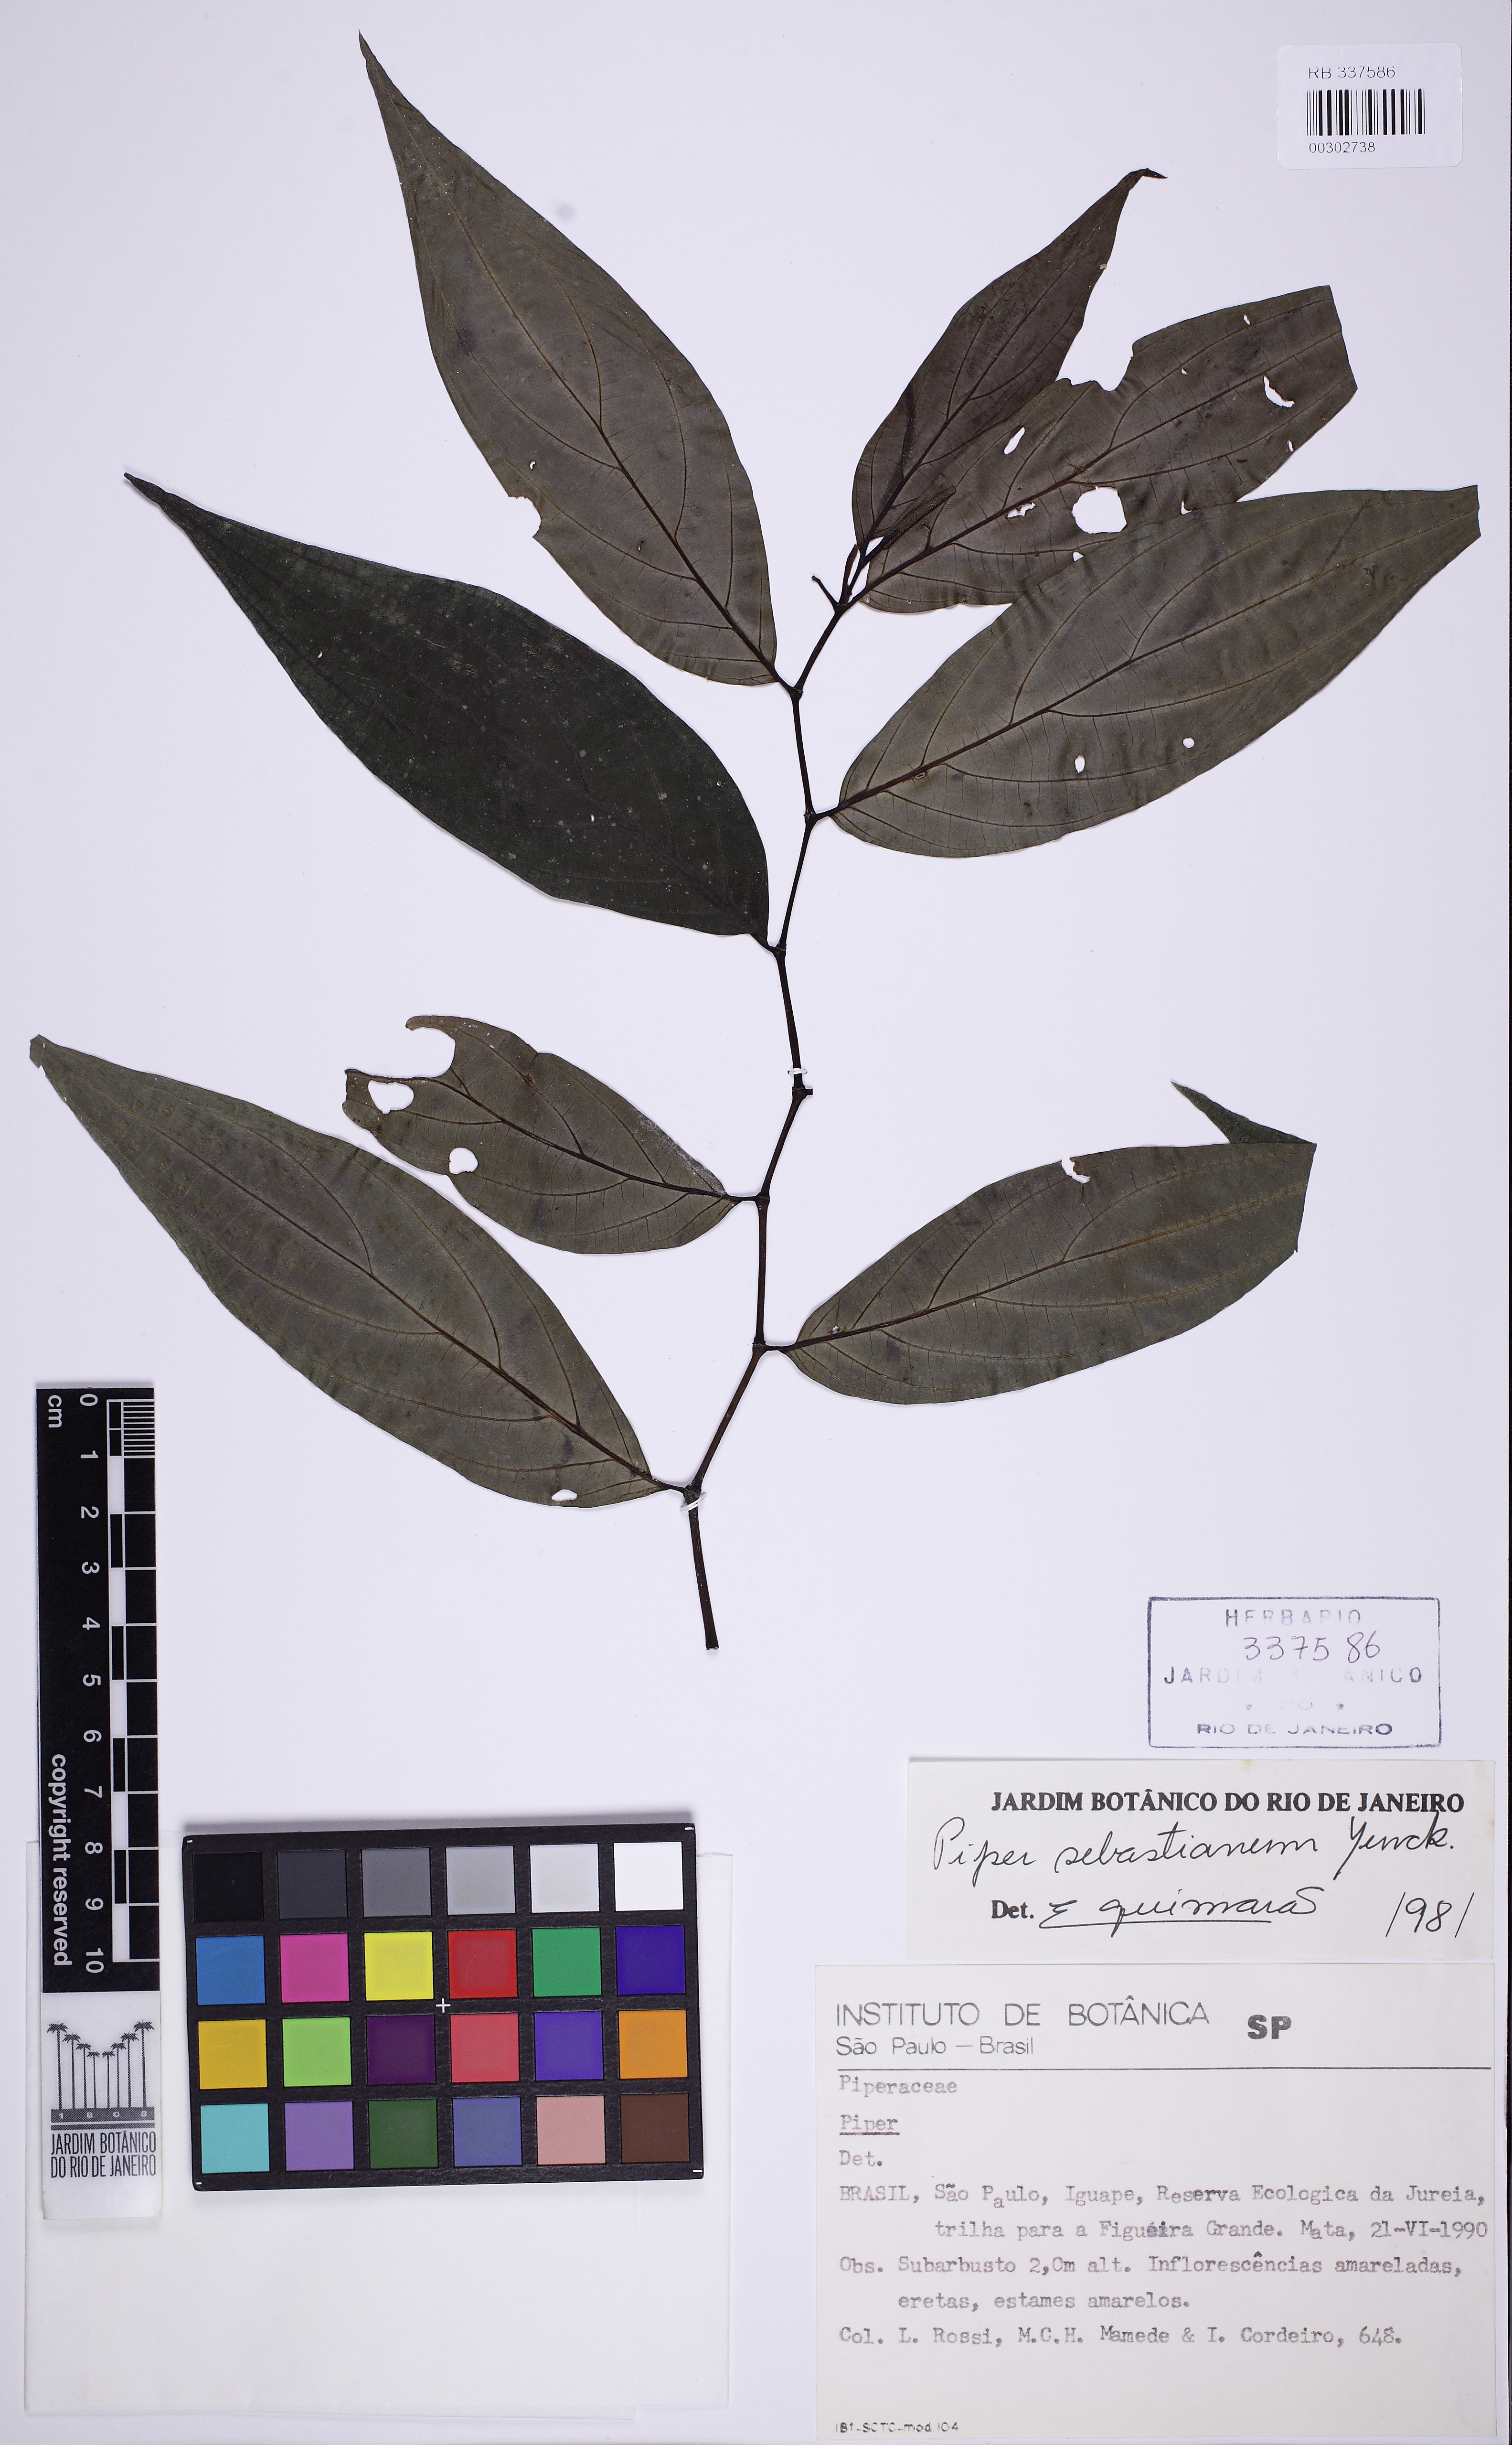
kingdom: Plantae
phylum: Tracheophyta
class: Magnoliopsida
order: Piperales
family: Piperaceae
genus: Piper
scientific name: Piper sebastianum
